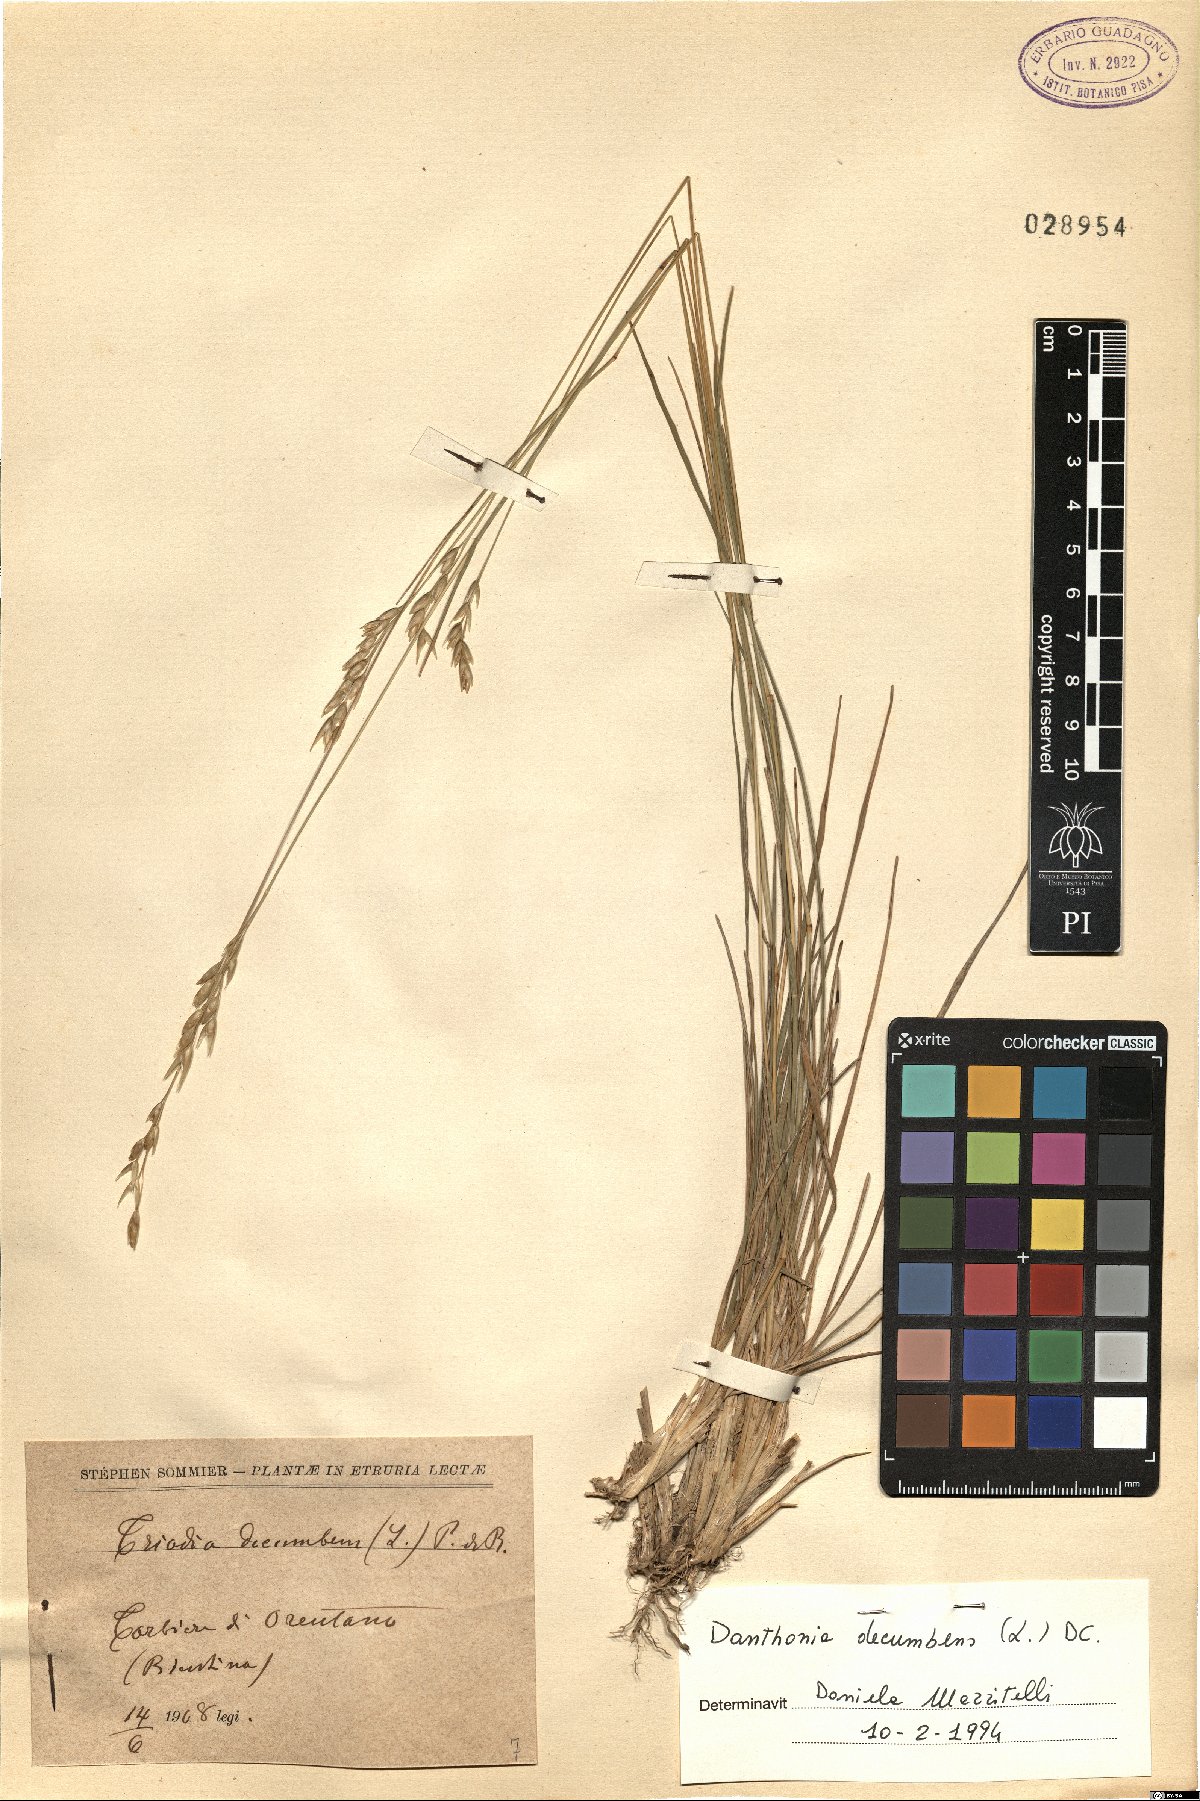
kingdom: Plantae
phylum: Tracheophyta
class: Liliopsida
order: Poales
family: Poaceae
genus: Danthonia
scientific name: Danthonia decumbens
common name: Common heathgrass
